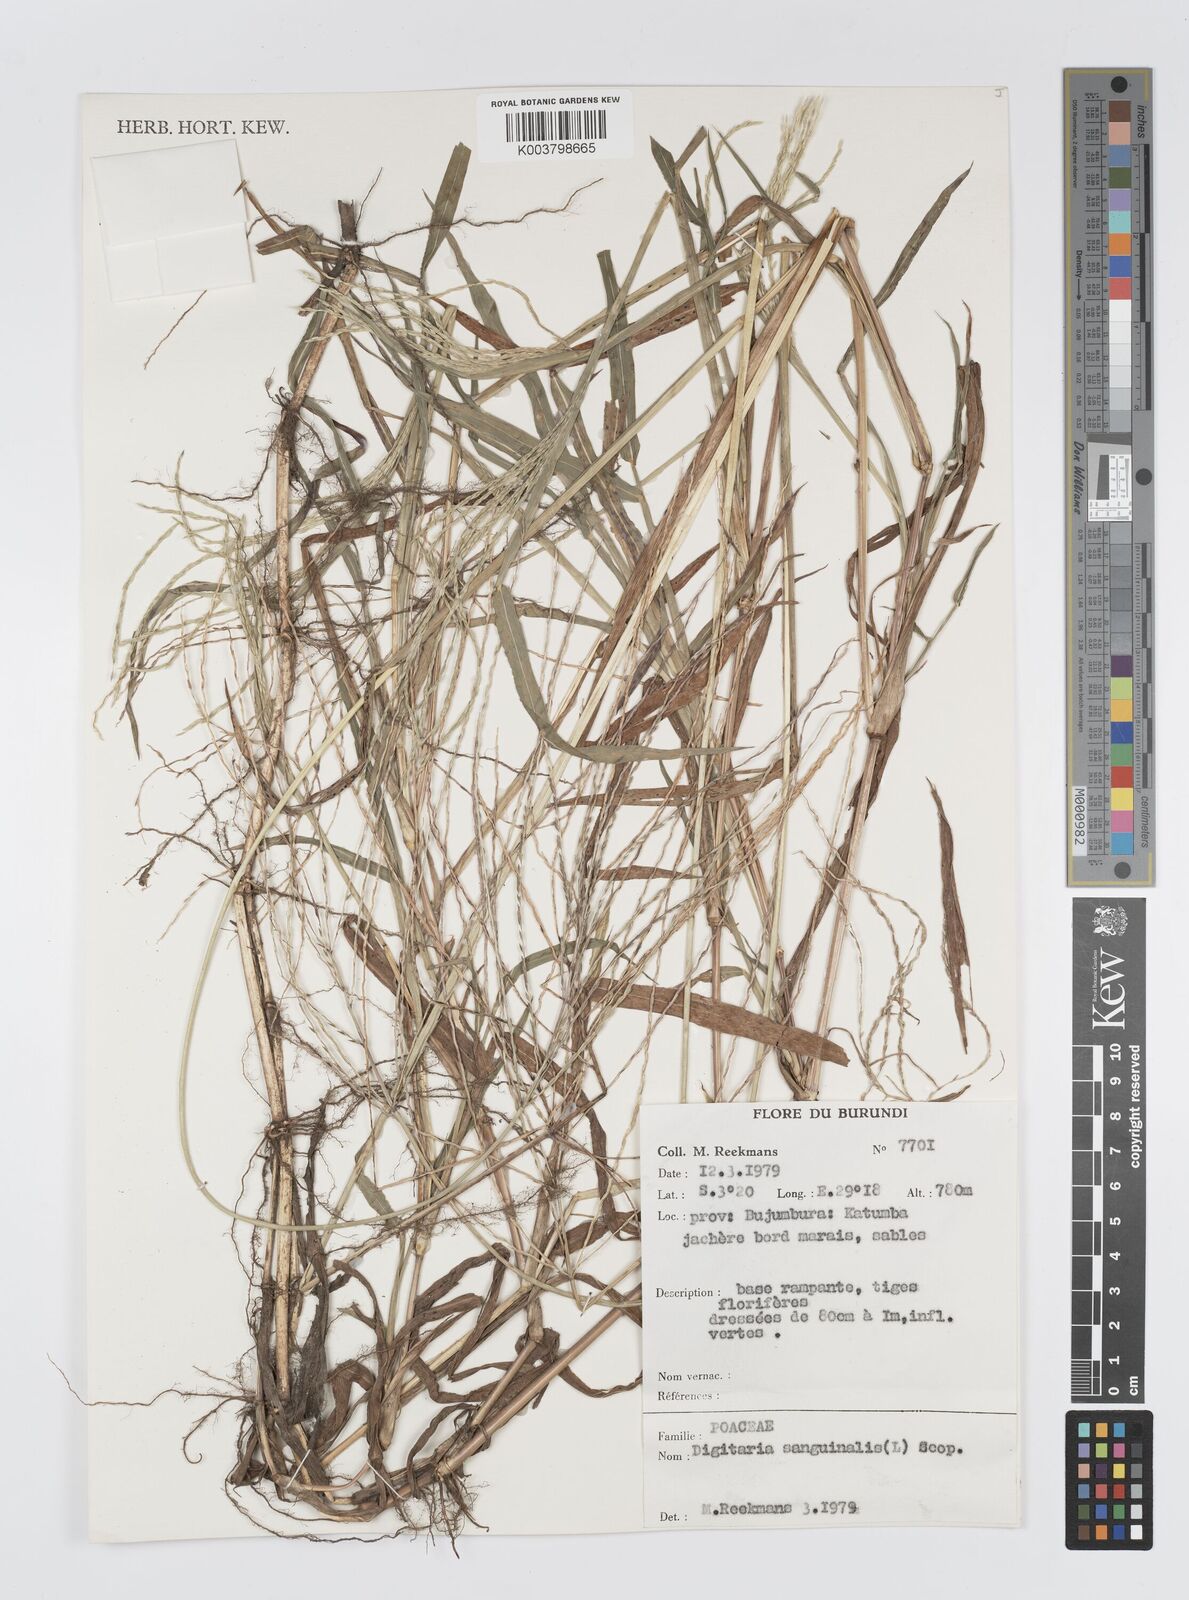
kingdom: Plantae
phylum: Tracheophyta
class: Liliopsida
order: Poales
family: Poaceae
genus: Digitaria
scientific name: Digitaria acuminatissima
